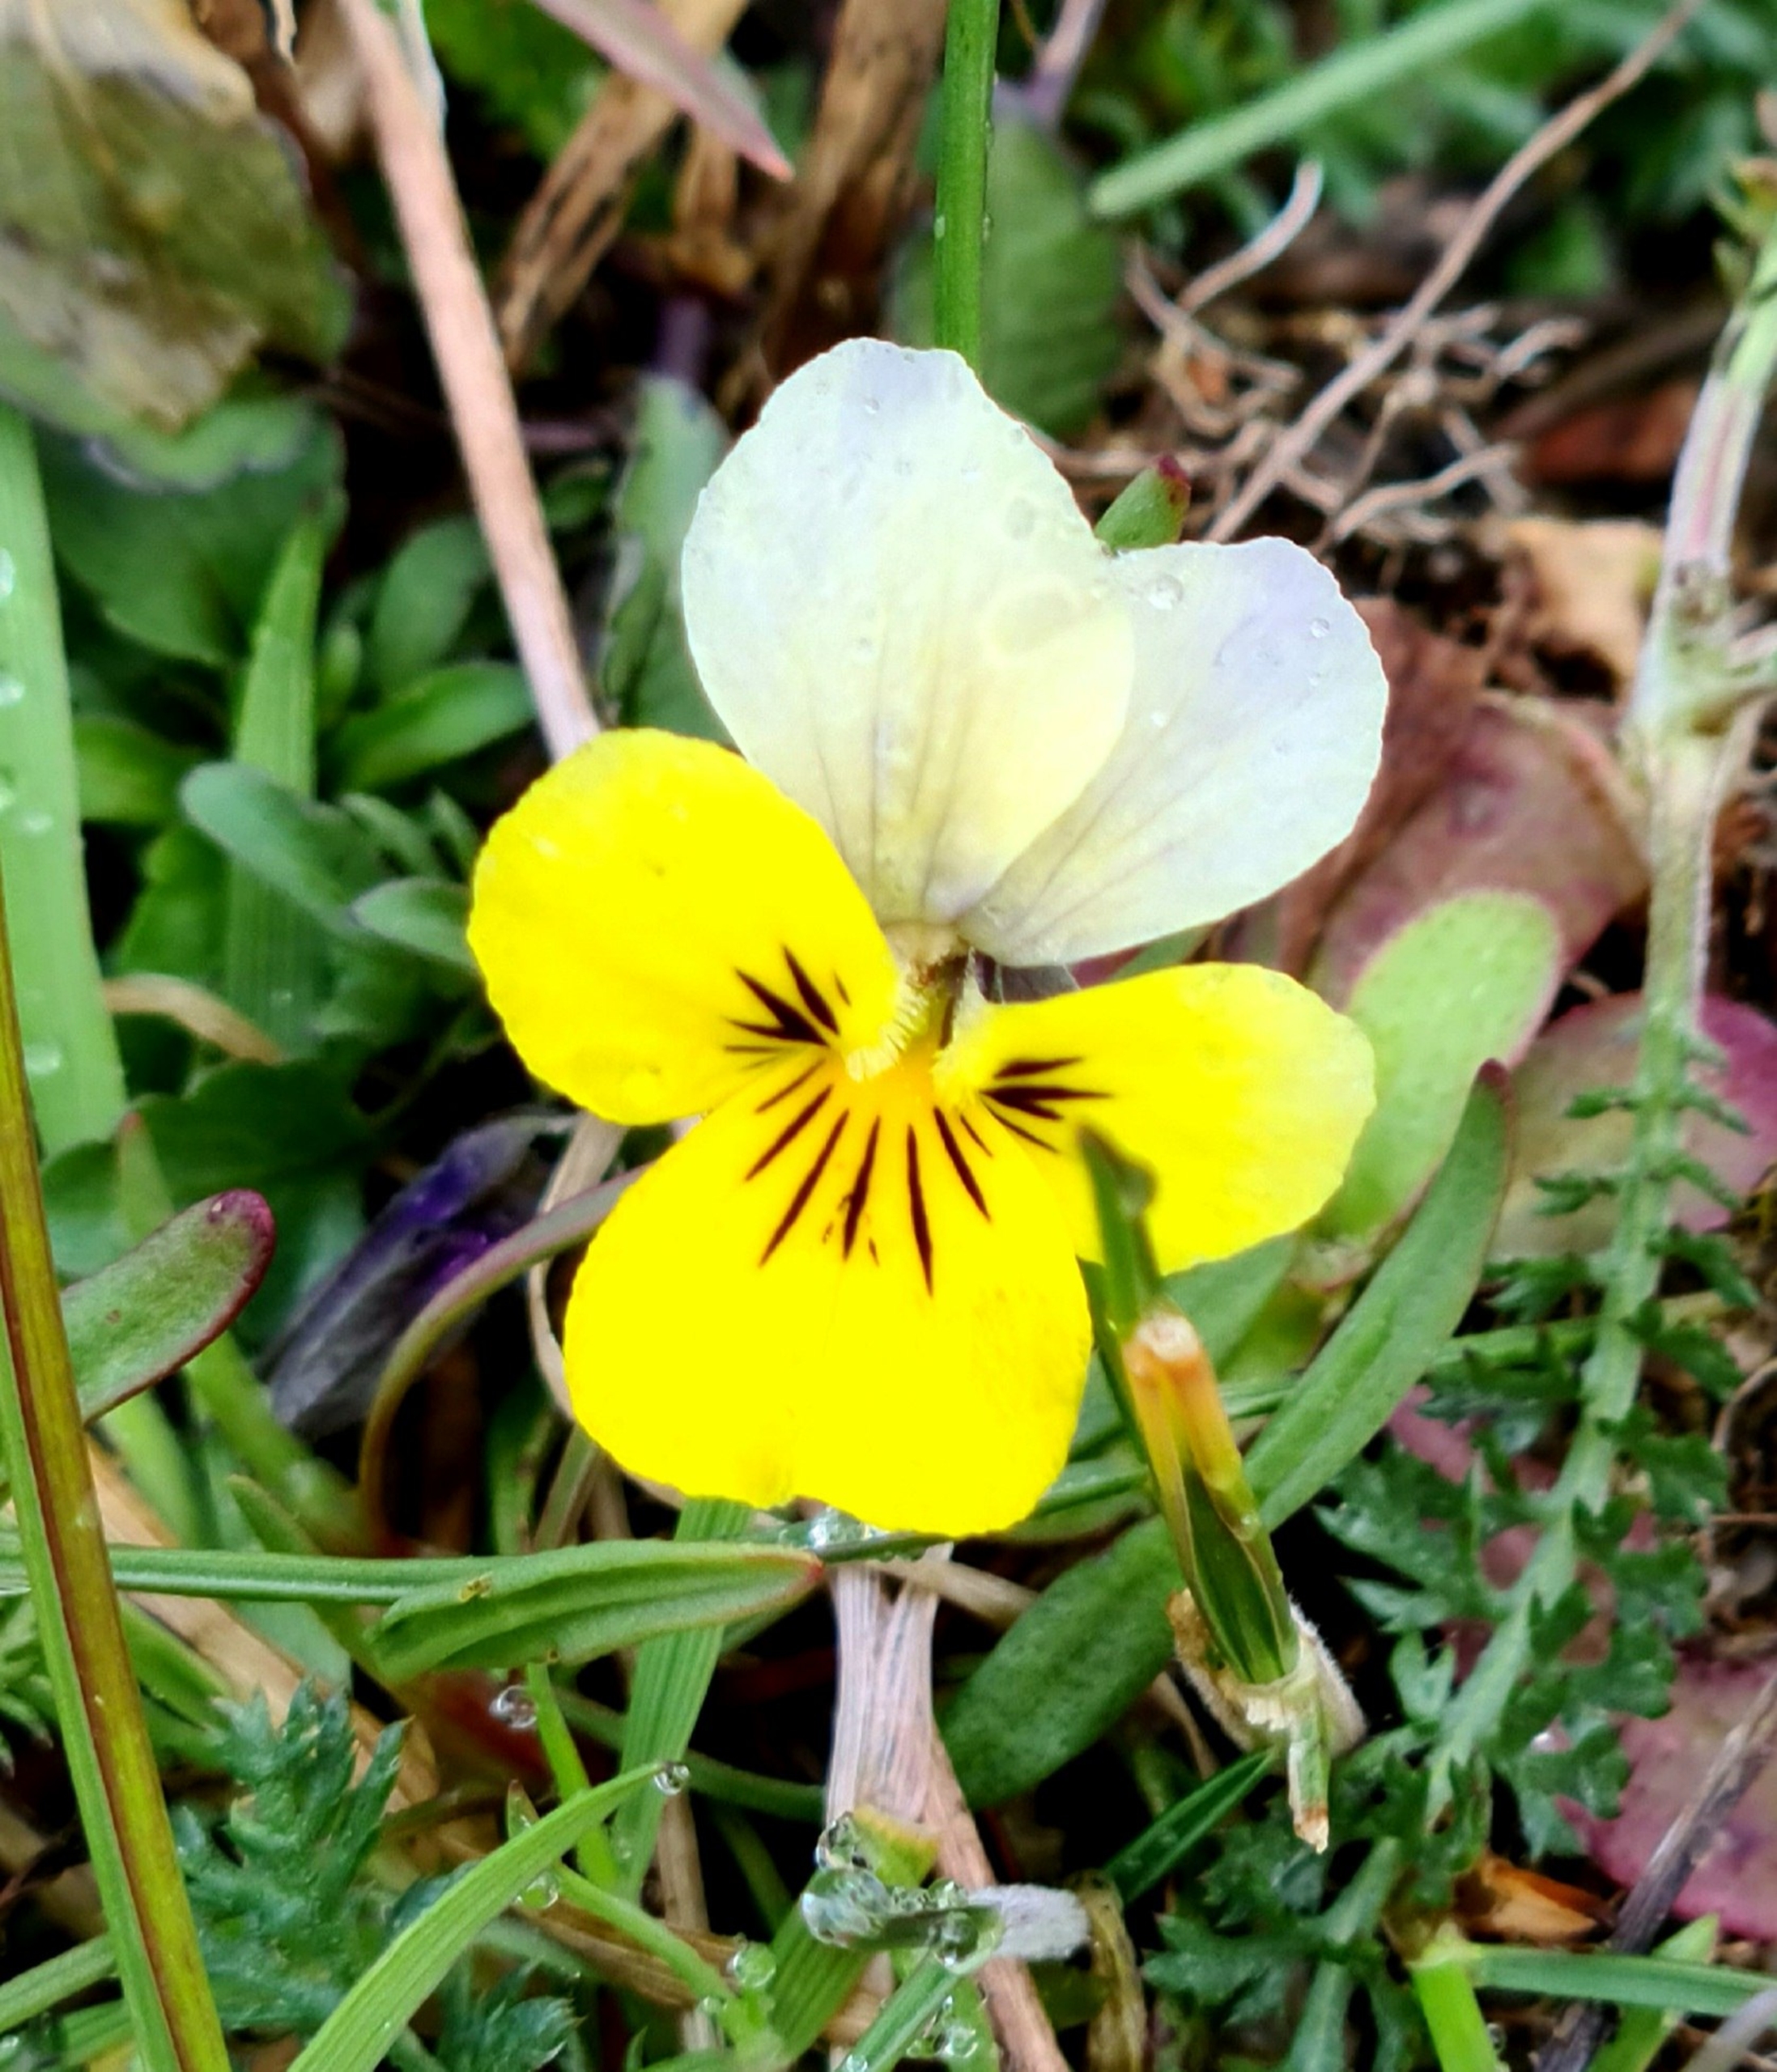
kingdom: Plantae
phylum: Tracheophyta
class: Magnoliopsida
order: Malpighiales
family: Violaceae
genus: Viola
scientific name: Viola tricolor
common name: Stedmoderblomst
